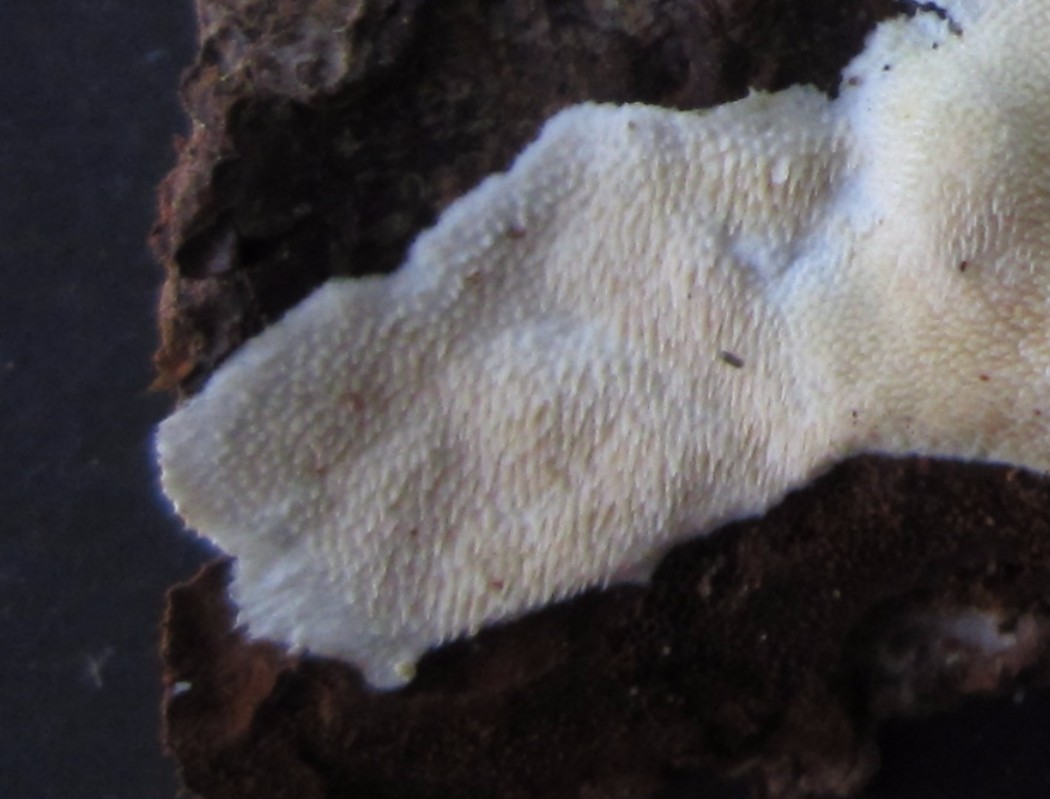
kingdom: Fungi
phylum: Basidiomycota
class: Agaricomycetes
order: Polyporales
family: Steccherinaceae
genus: Steccherinum
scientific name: Steccherinum ochraceum
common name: almindelig skønpig
